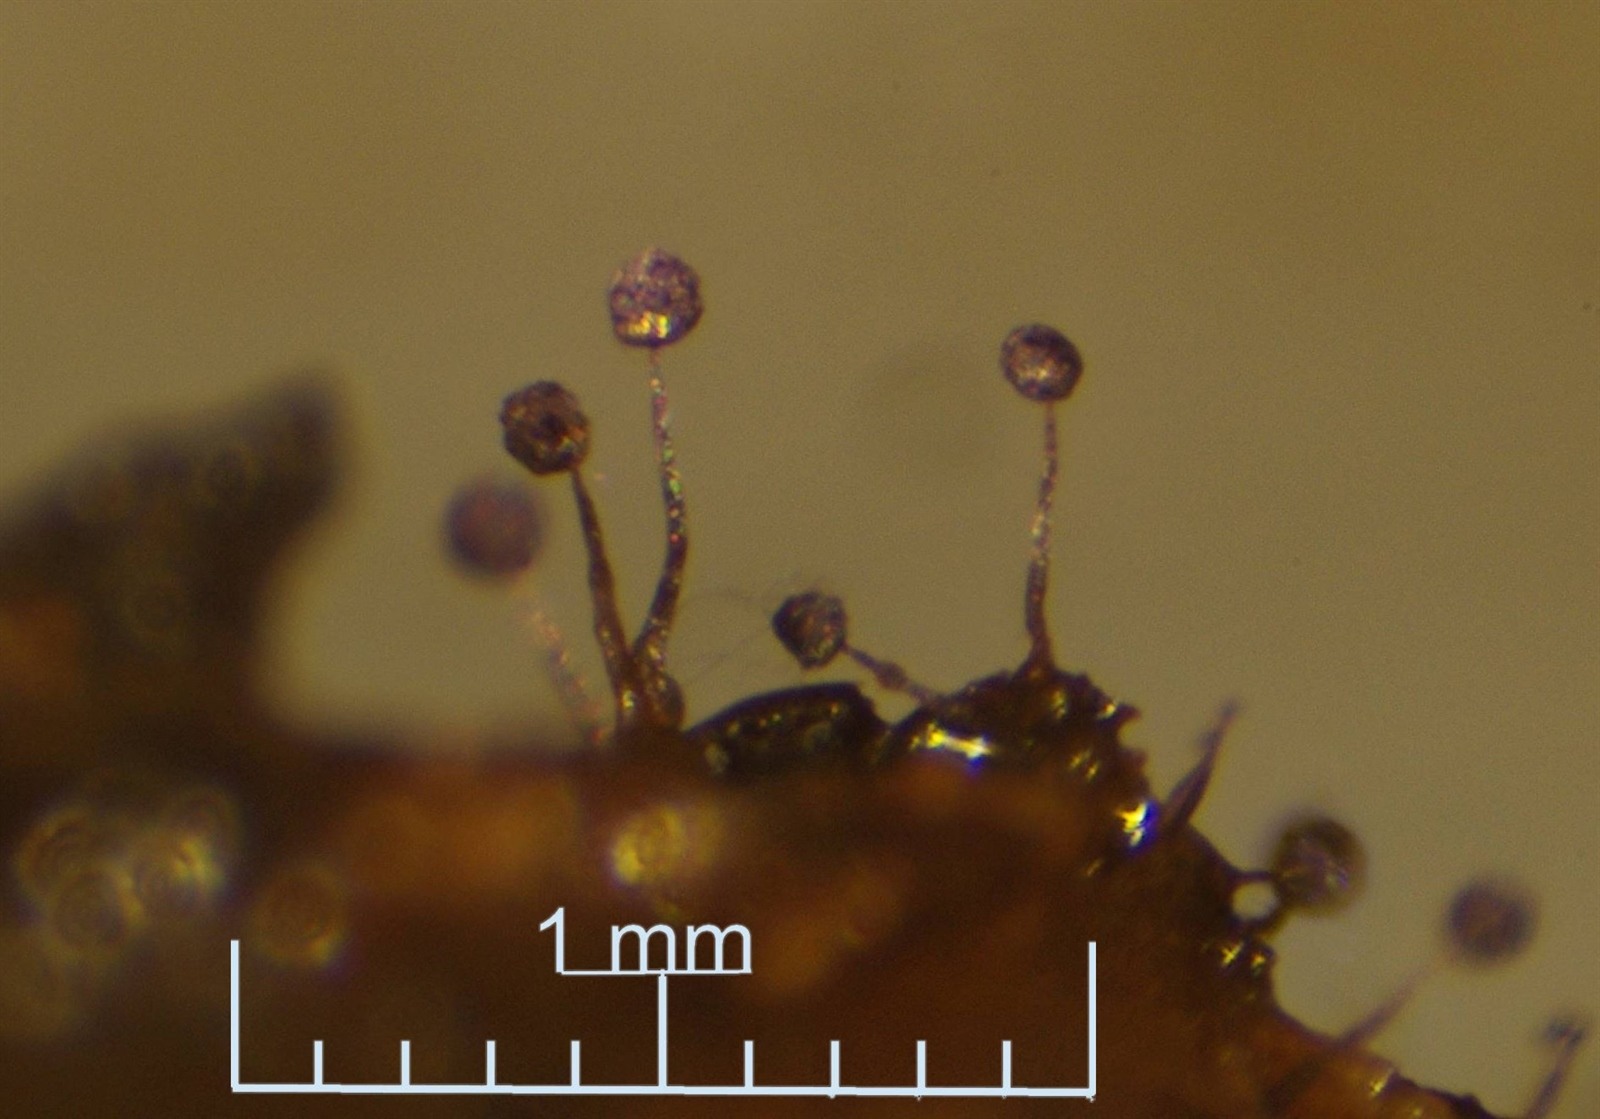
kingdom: Protozoa
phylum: Mycetozoa
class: Myxomycetes
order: Cribrariales
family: Cribrariaceae
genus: Cribraria
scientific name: Cribraria violacea
